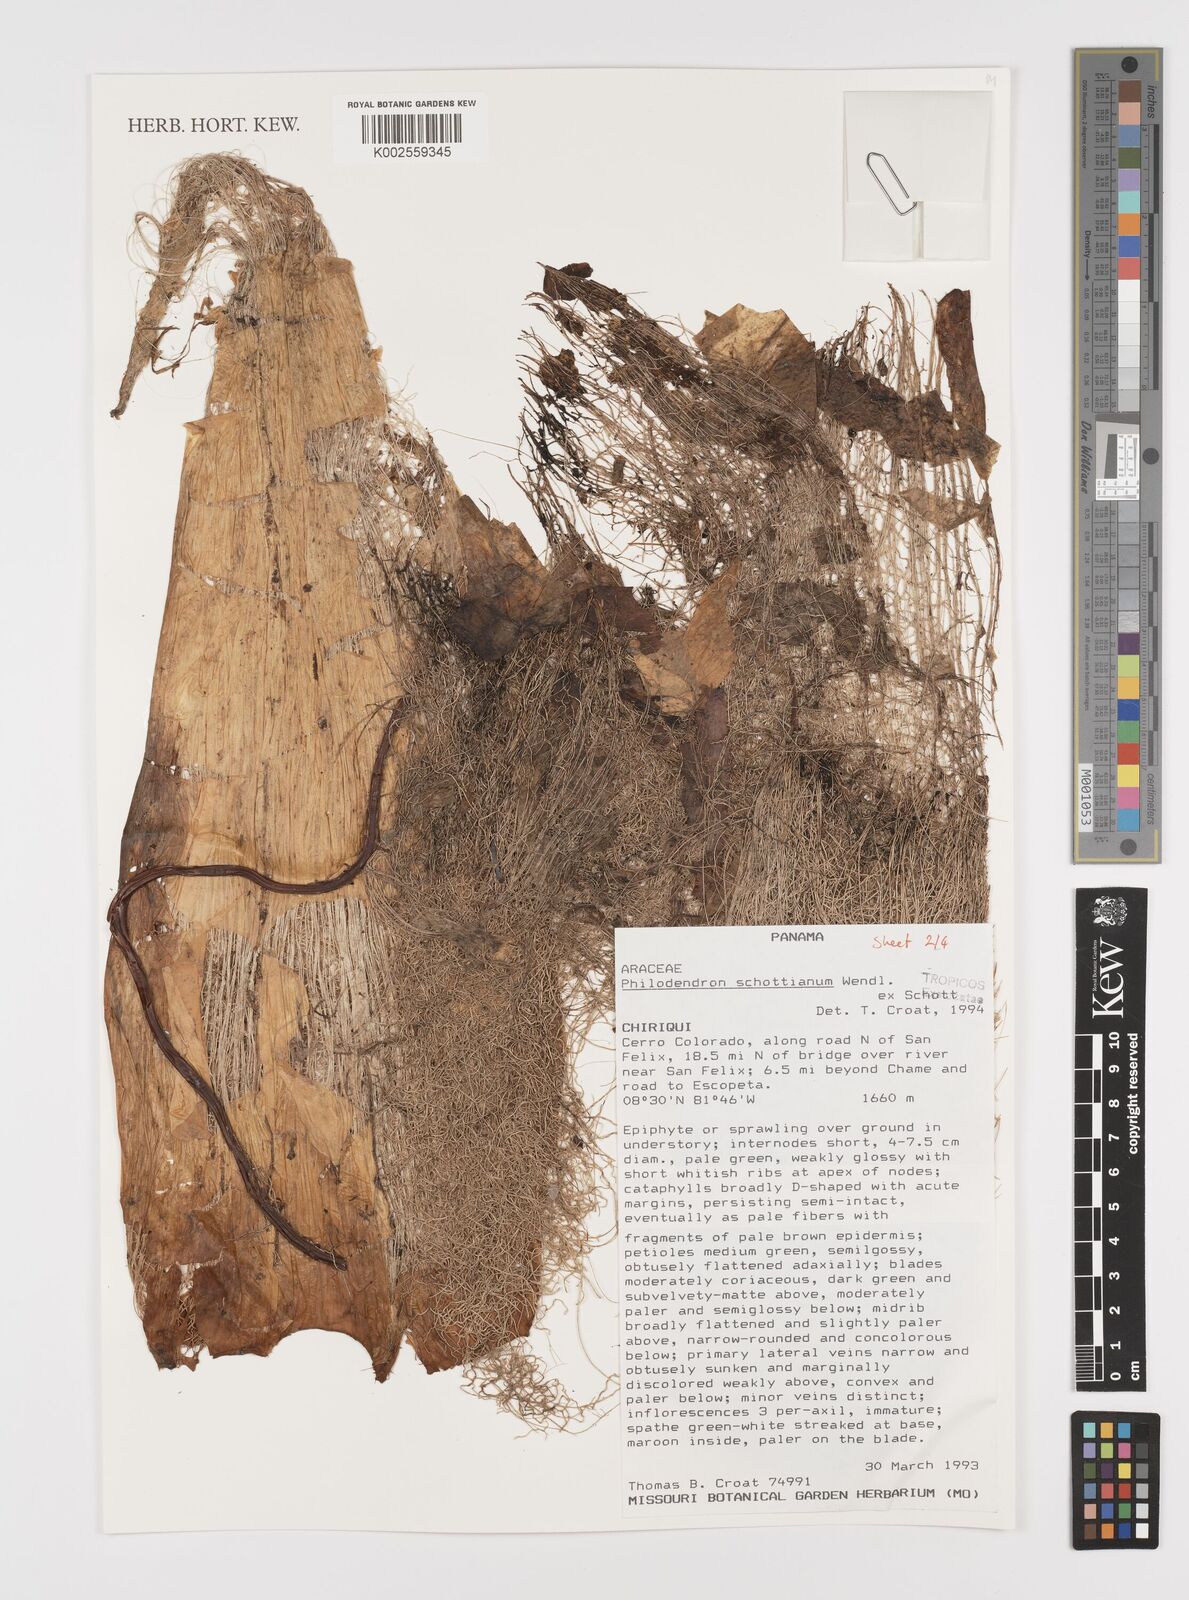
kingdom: Plantae
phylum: Tracheophyta
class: Liliopsida
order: Alismatales
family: Araceae
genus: Philodendron
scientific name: Philodendron schottianum
